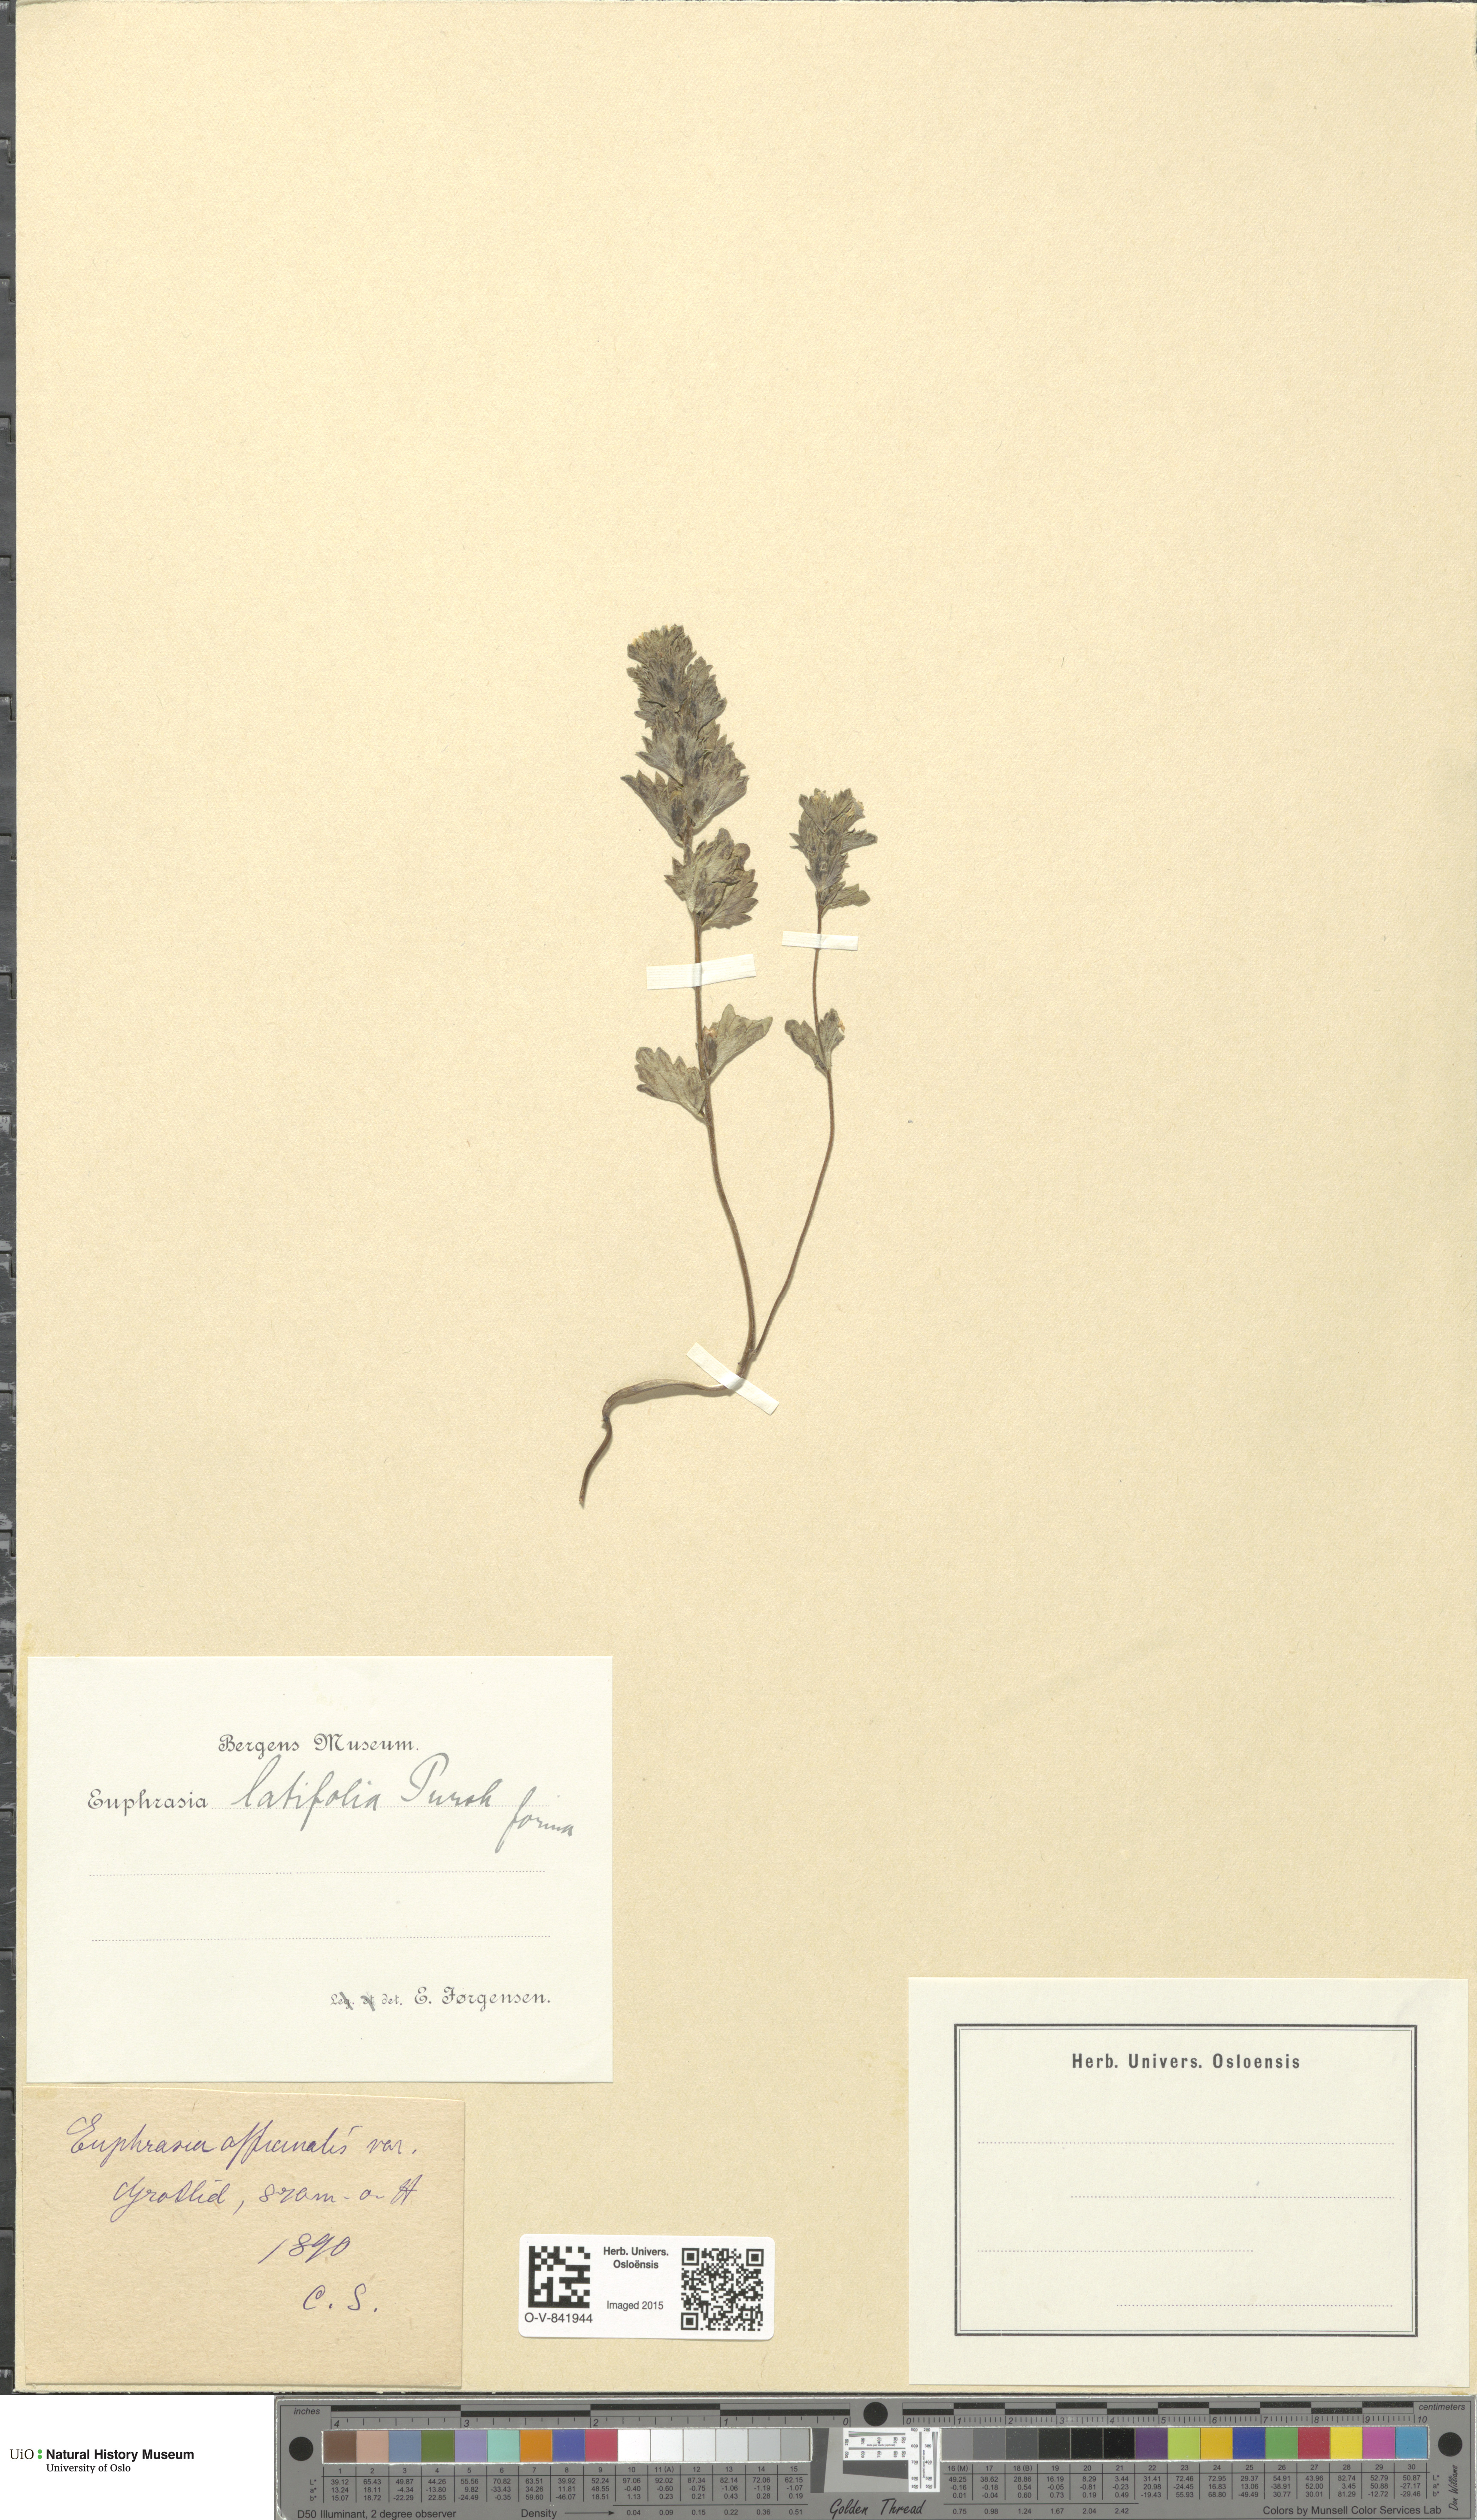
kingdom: Plantae
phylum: Tracheophyta
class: Magnoliopsida
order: Lamiales
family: Orobanchaceae
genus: Euphrasia
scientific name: Euphrasia wettsteinii
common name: Wettstein's eyebright
